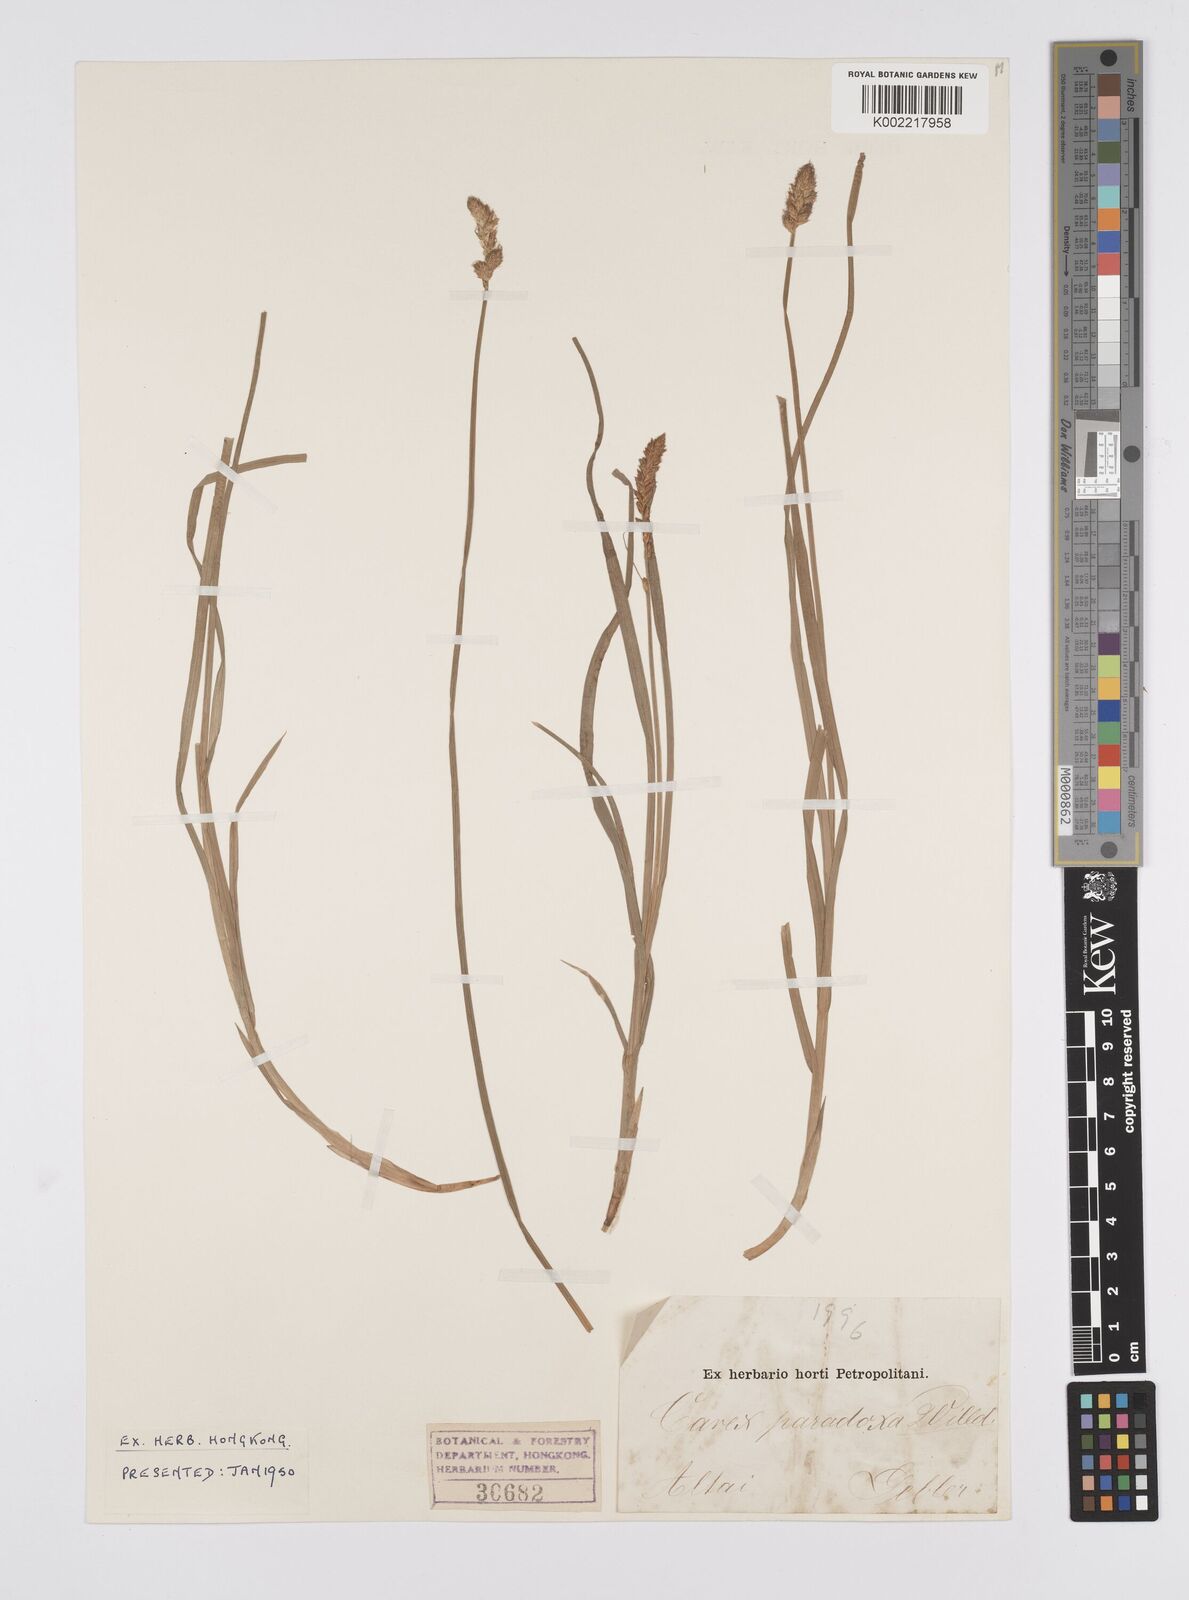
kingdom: Plantae
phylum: Tracheophyta
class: Liliopsida
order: Poales
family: Cyperaceae
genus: Carex
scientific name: Carex appropinquata
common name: Fibrous tussock-sedge
